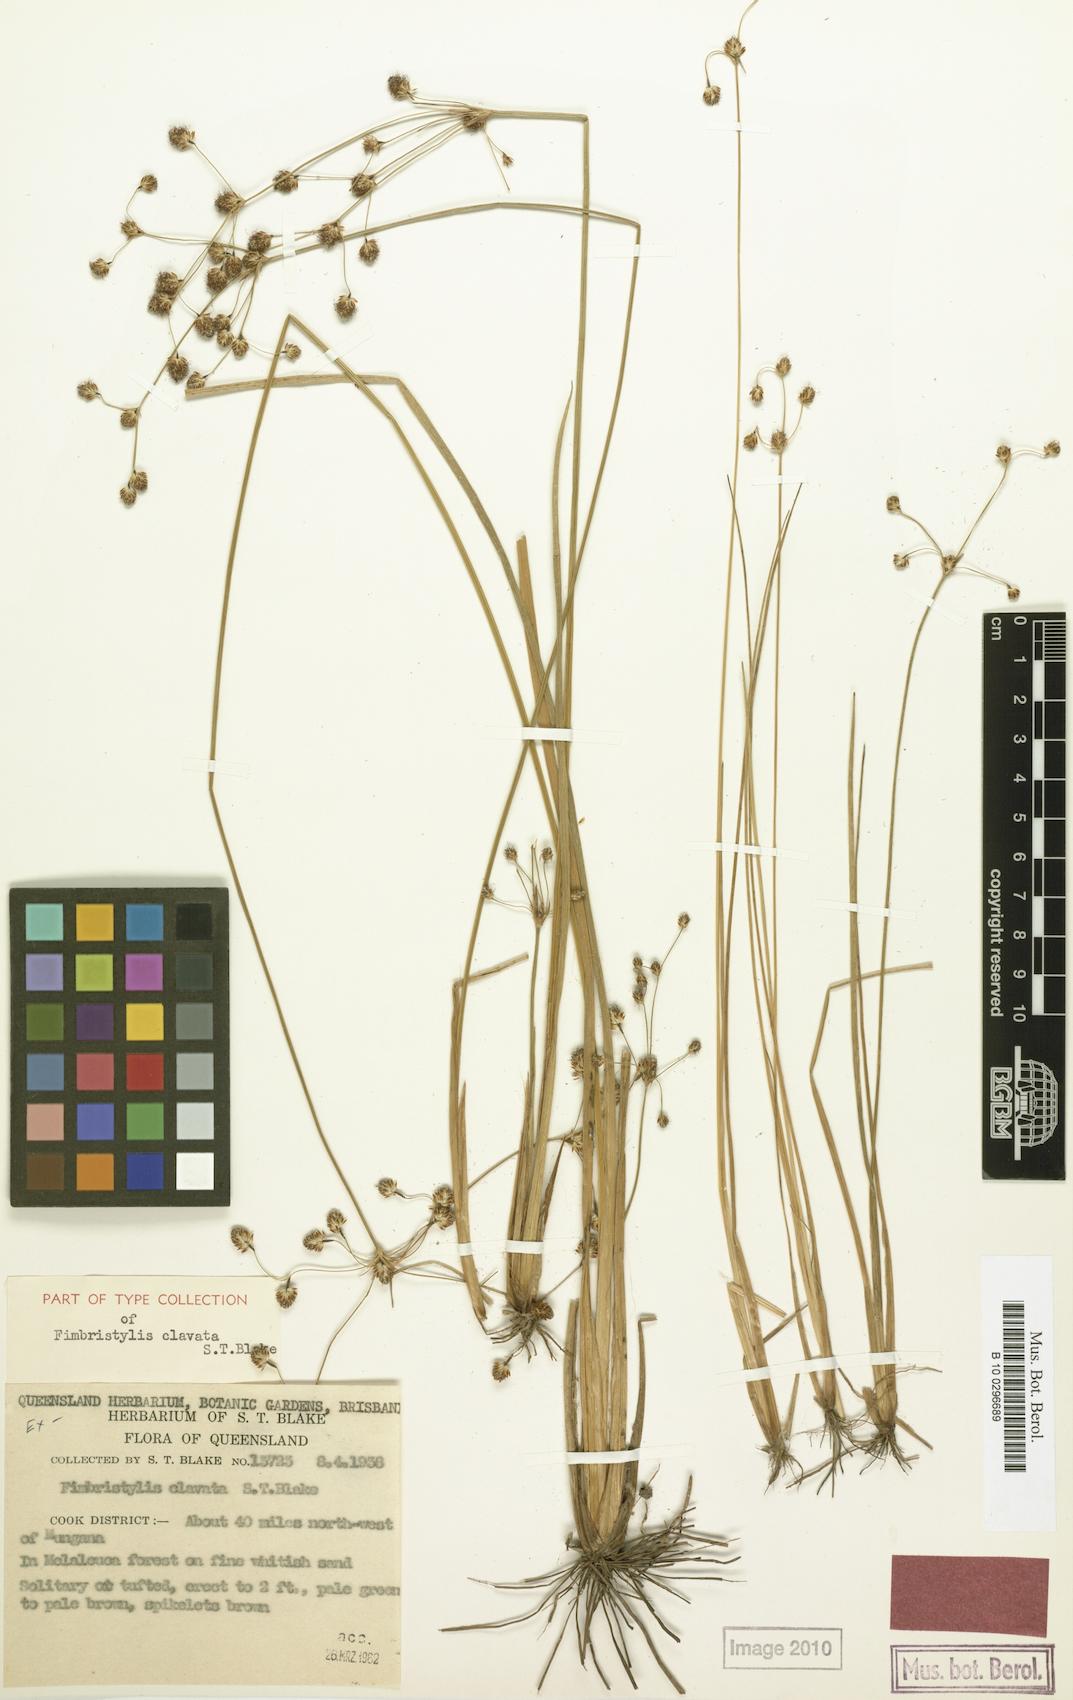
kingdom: Plantae
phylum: Tracheophyta
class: Liliopsida
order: Poales
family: Cyperaceae
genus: Fimbristylis
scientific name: Fimbristylis clavata
